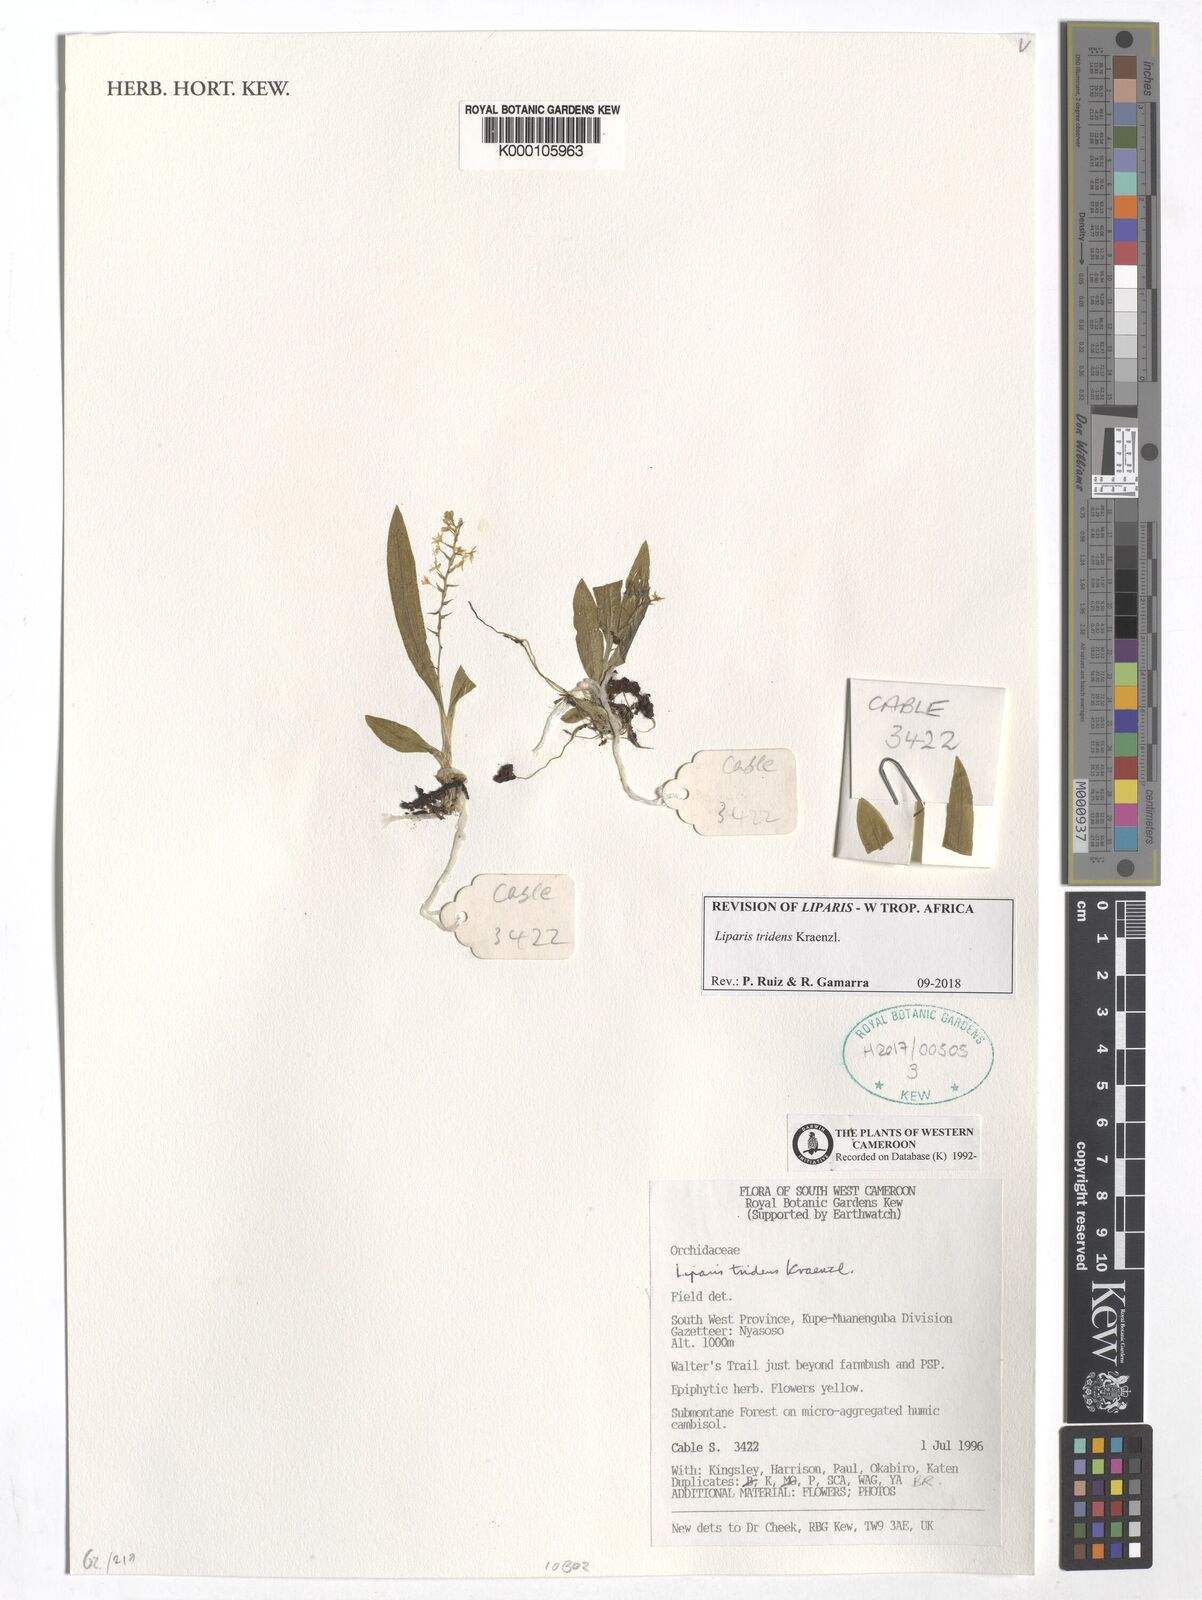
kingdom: Plantae
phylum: Tracheophyta
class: Liliopsida
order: Asparagales
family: Orchidaceae
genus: Liparis
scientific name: Liparis tridens
